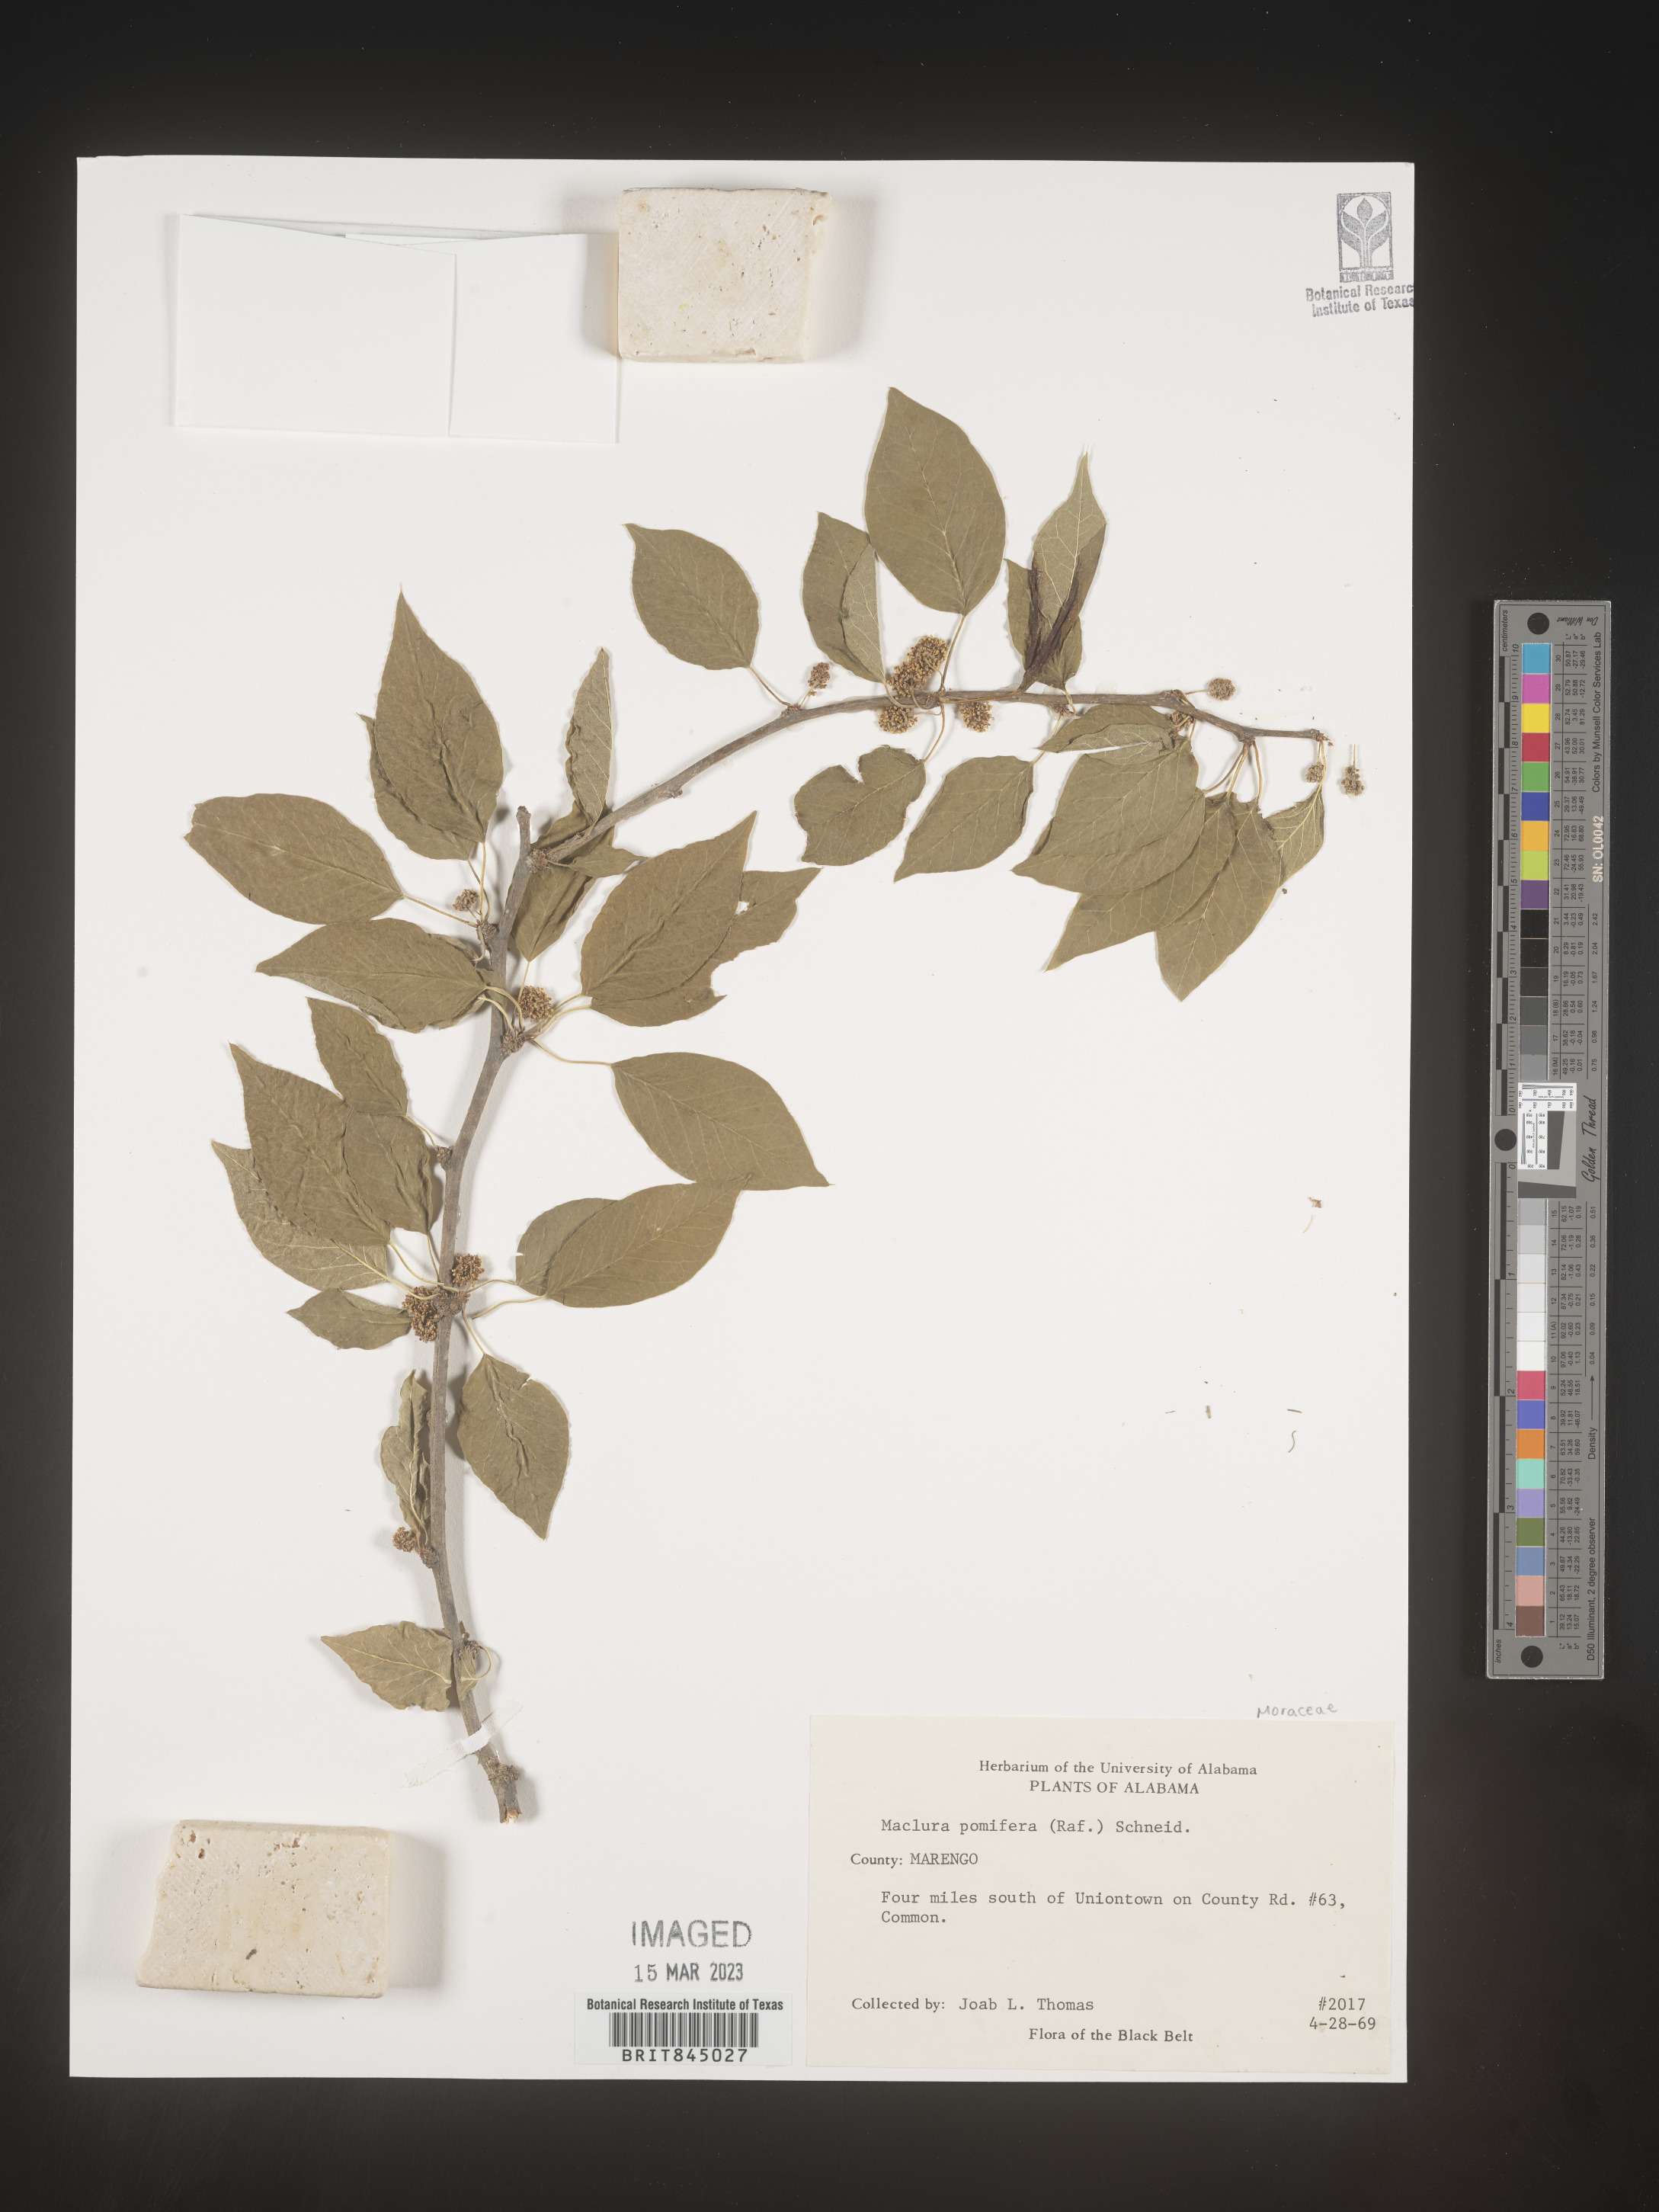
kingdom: Plantae
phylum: Tracheophyta
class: Magnoliopsida
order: Rosales
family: Moraceae
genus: Maclura
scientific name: Maclura pomifera
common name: Osage-orange
